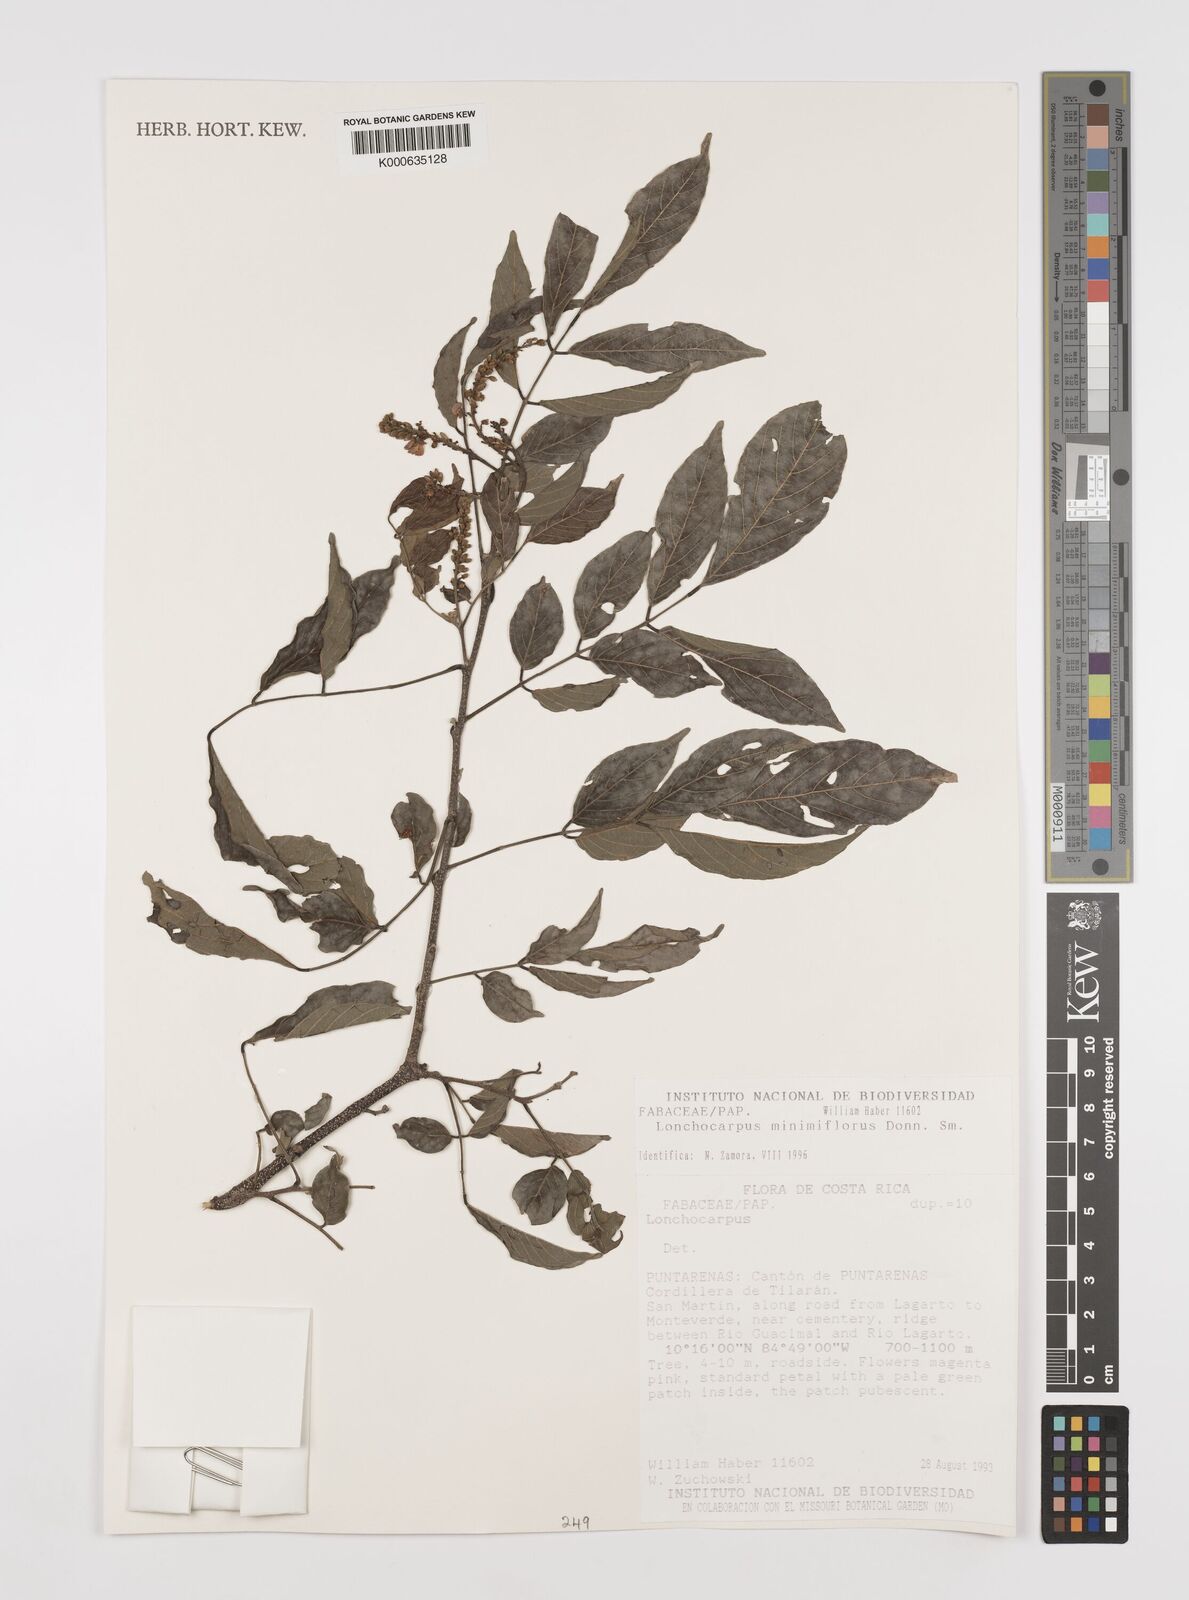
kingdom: Plantae
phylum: Tracheophyta
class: Magnoliopsida
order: Fabales
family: Fabaceae
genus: Lonchocarpus
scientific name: Lonchocarpus minimiflorus
